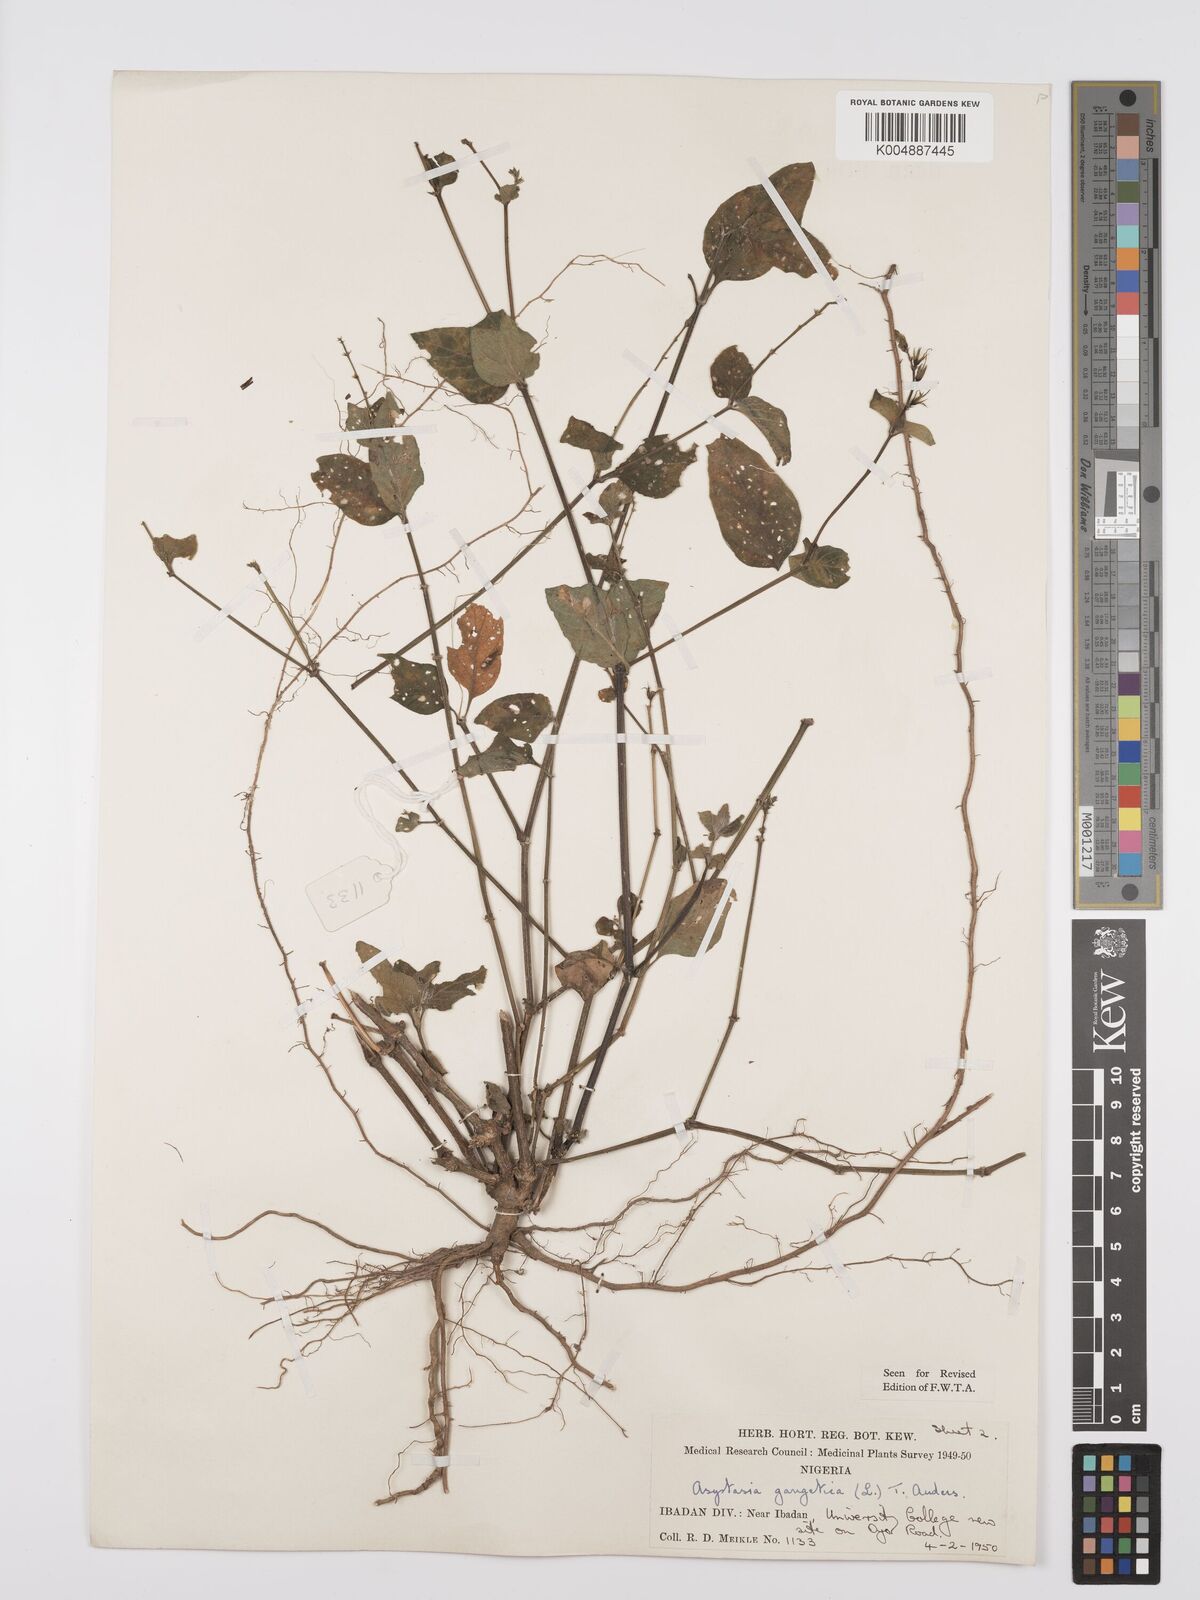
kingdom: Plantae
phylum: Tracheophyta
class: Magnoliopsida
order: Lamiales
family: Acanthaceae
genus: Asystasia
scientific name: Asystasia gangetica
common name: Chinese violet
